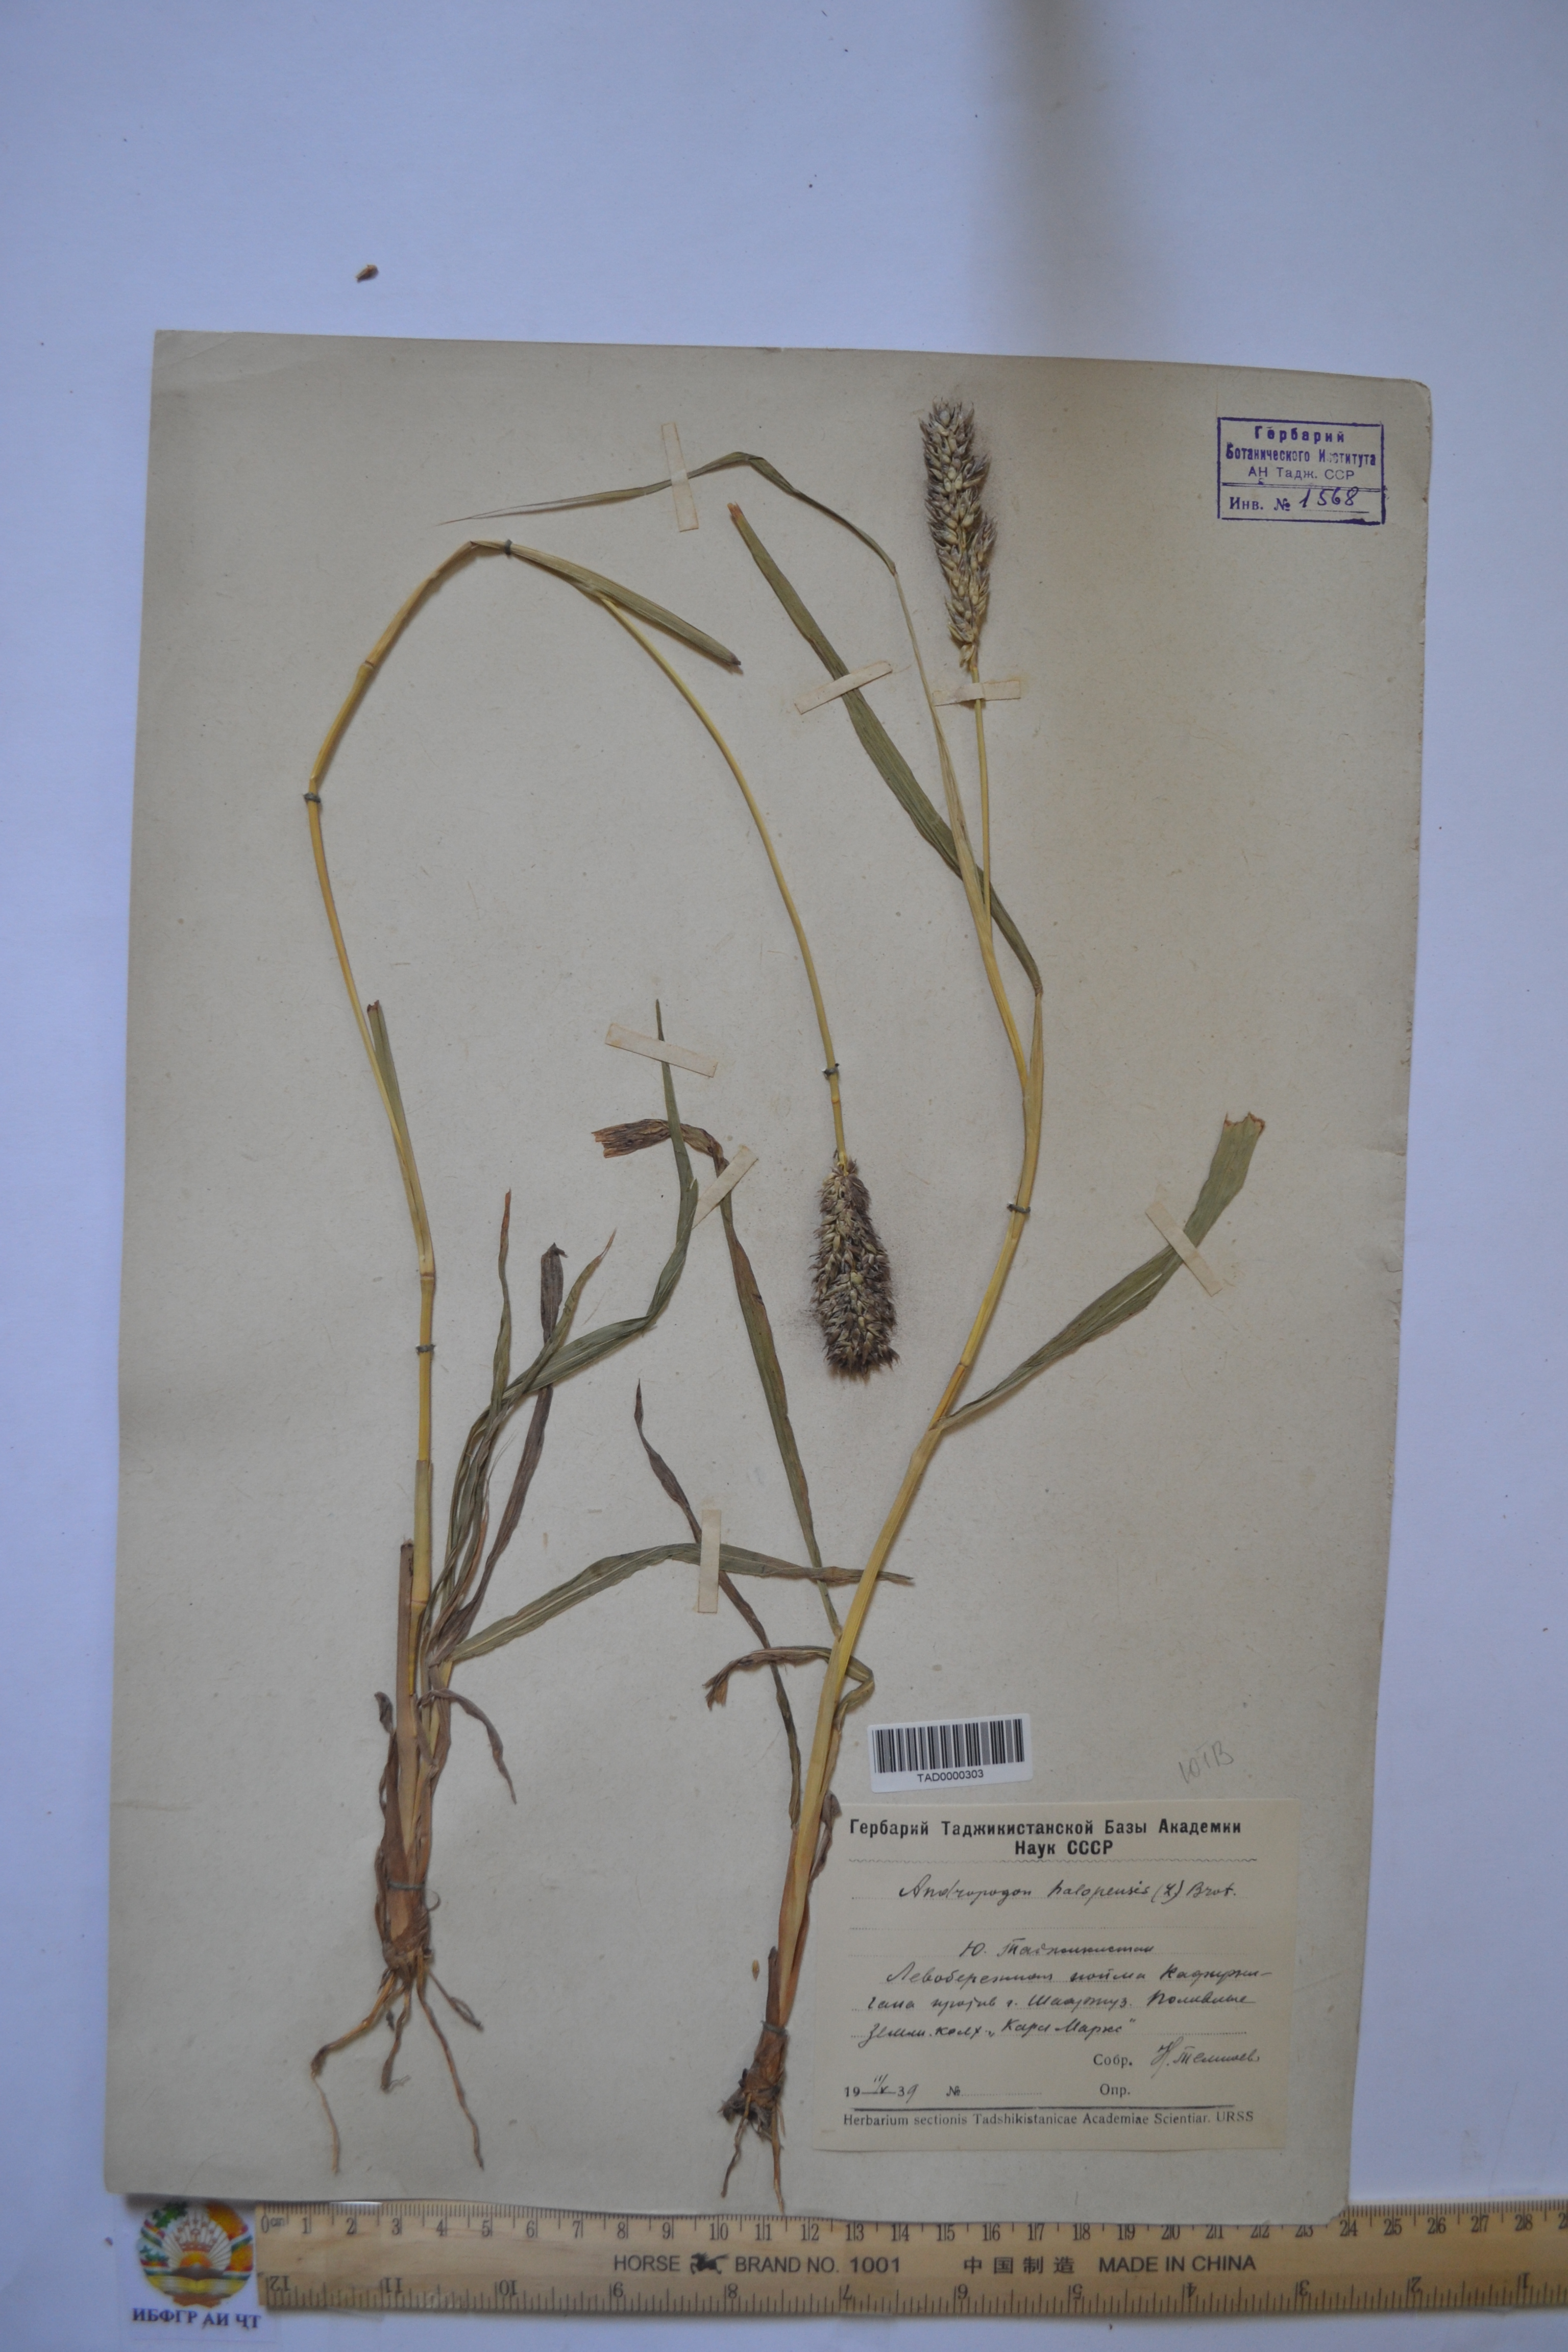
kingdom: Plantae
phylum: Tracheophyta
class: Liliopsida
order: Poales
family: Poaceae
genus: Andropogon
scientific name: Andropogon halepensis
